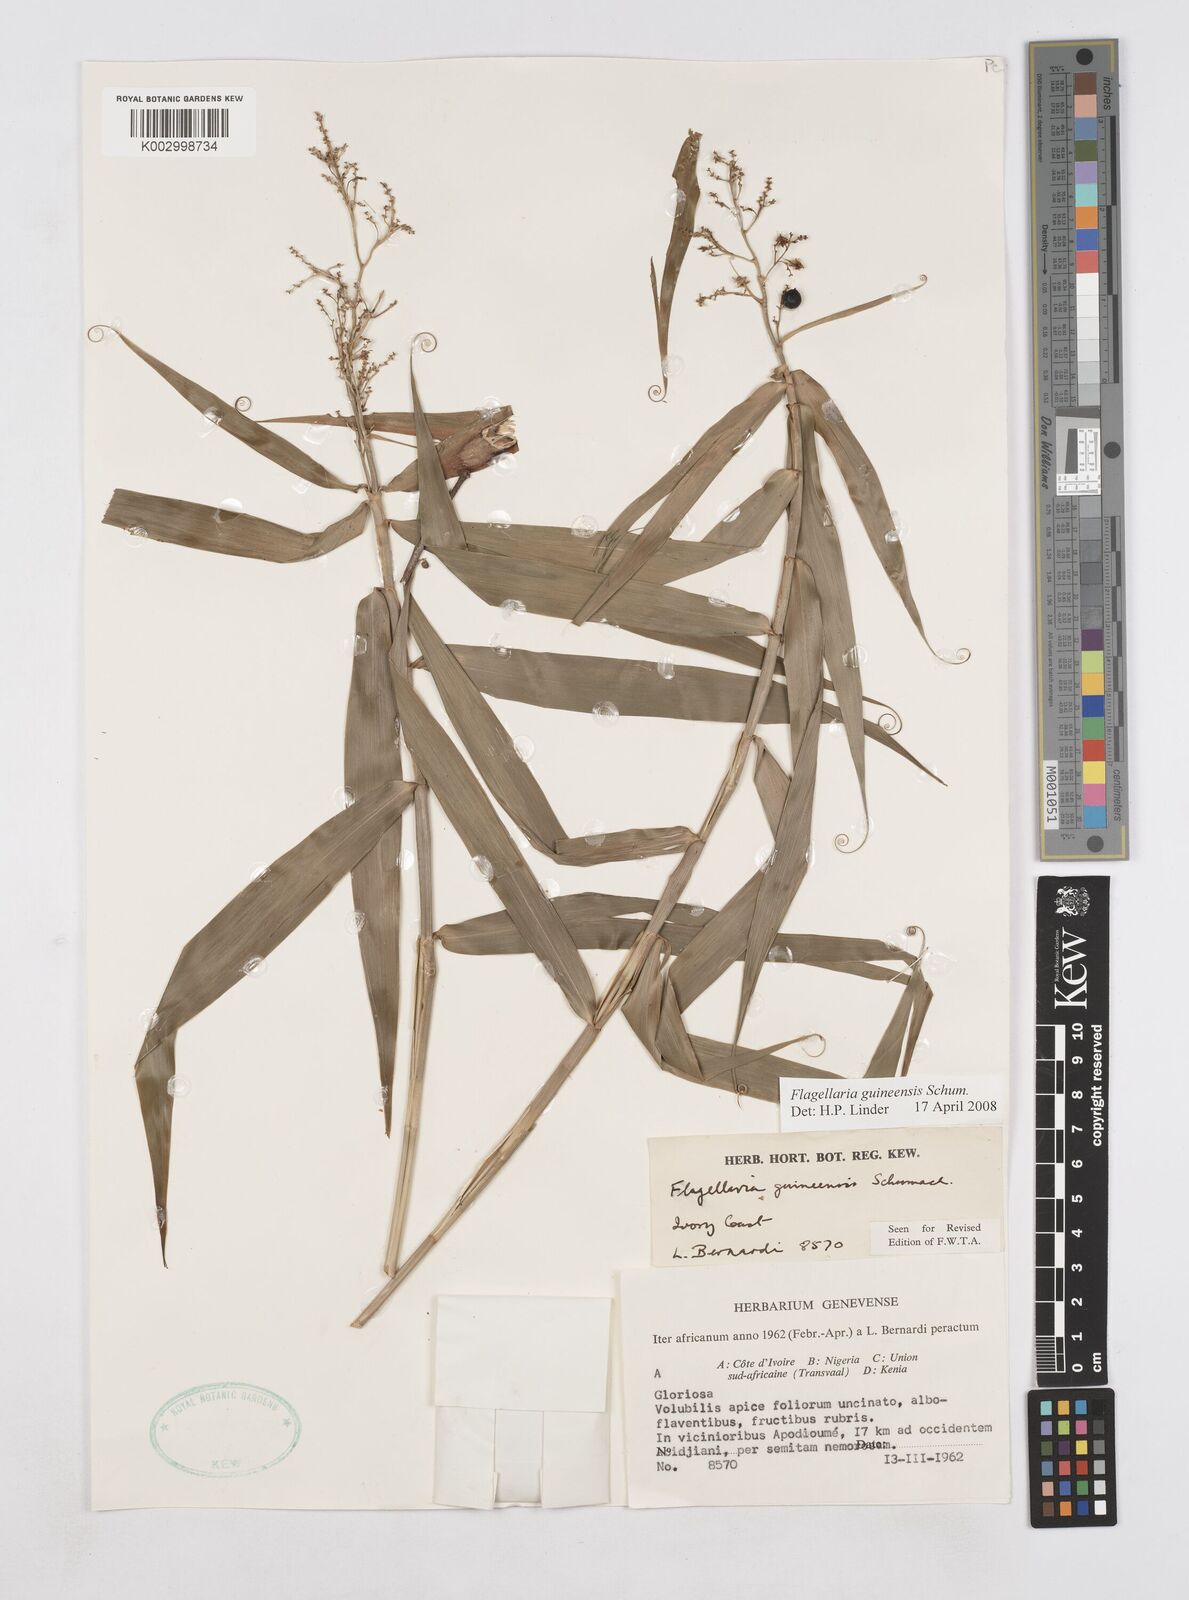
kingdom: Plantae
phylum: Tracheophyta
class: Liliopsida
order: Poales
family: Flagellariaceae
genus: Flagellaria
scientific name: Flagellaria guineensis
